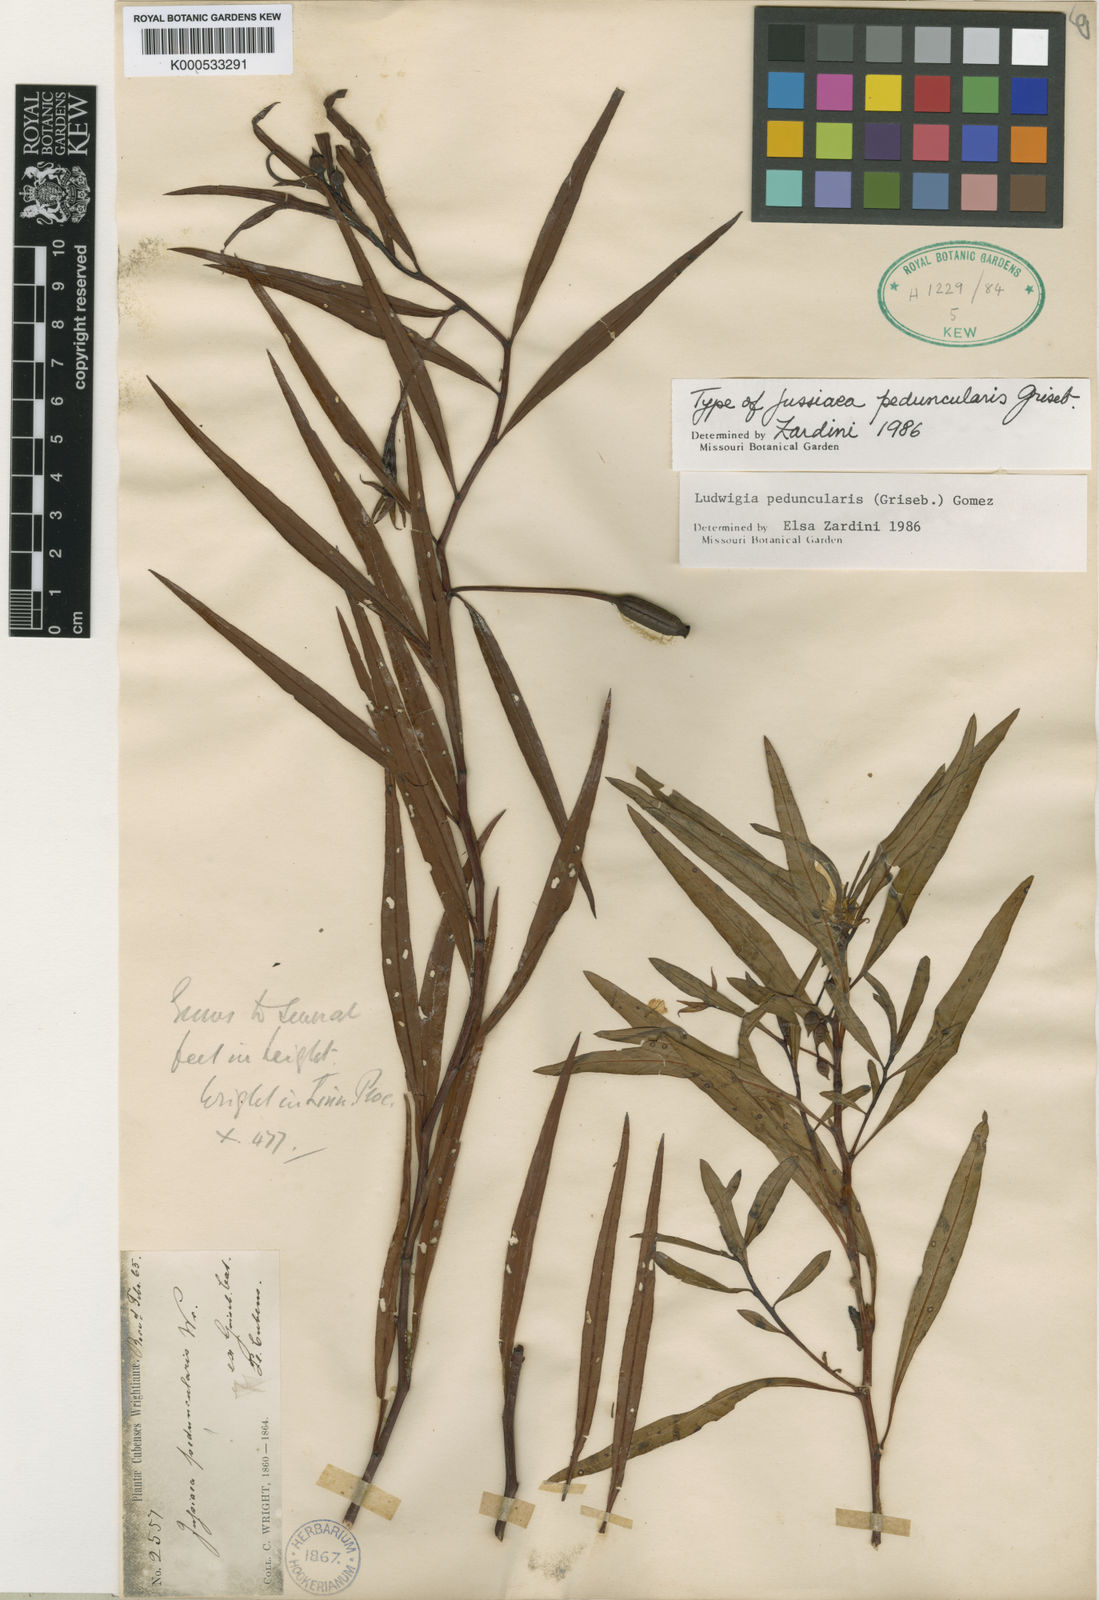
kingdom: Plantae
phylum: Tracheophyta
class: Magnoliopsida
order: Myrtales
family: Onagraceae
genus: Ludwigia
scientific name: Ludwigia
